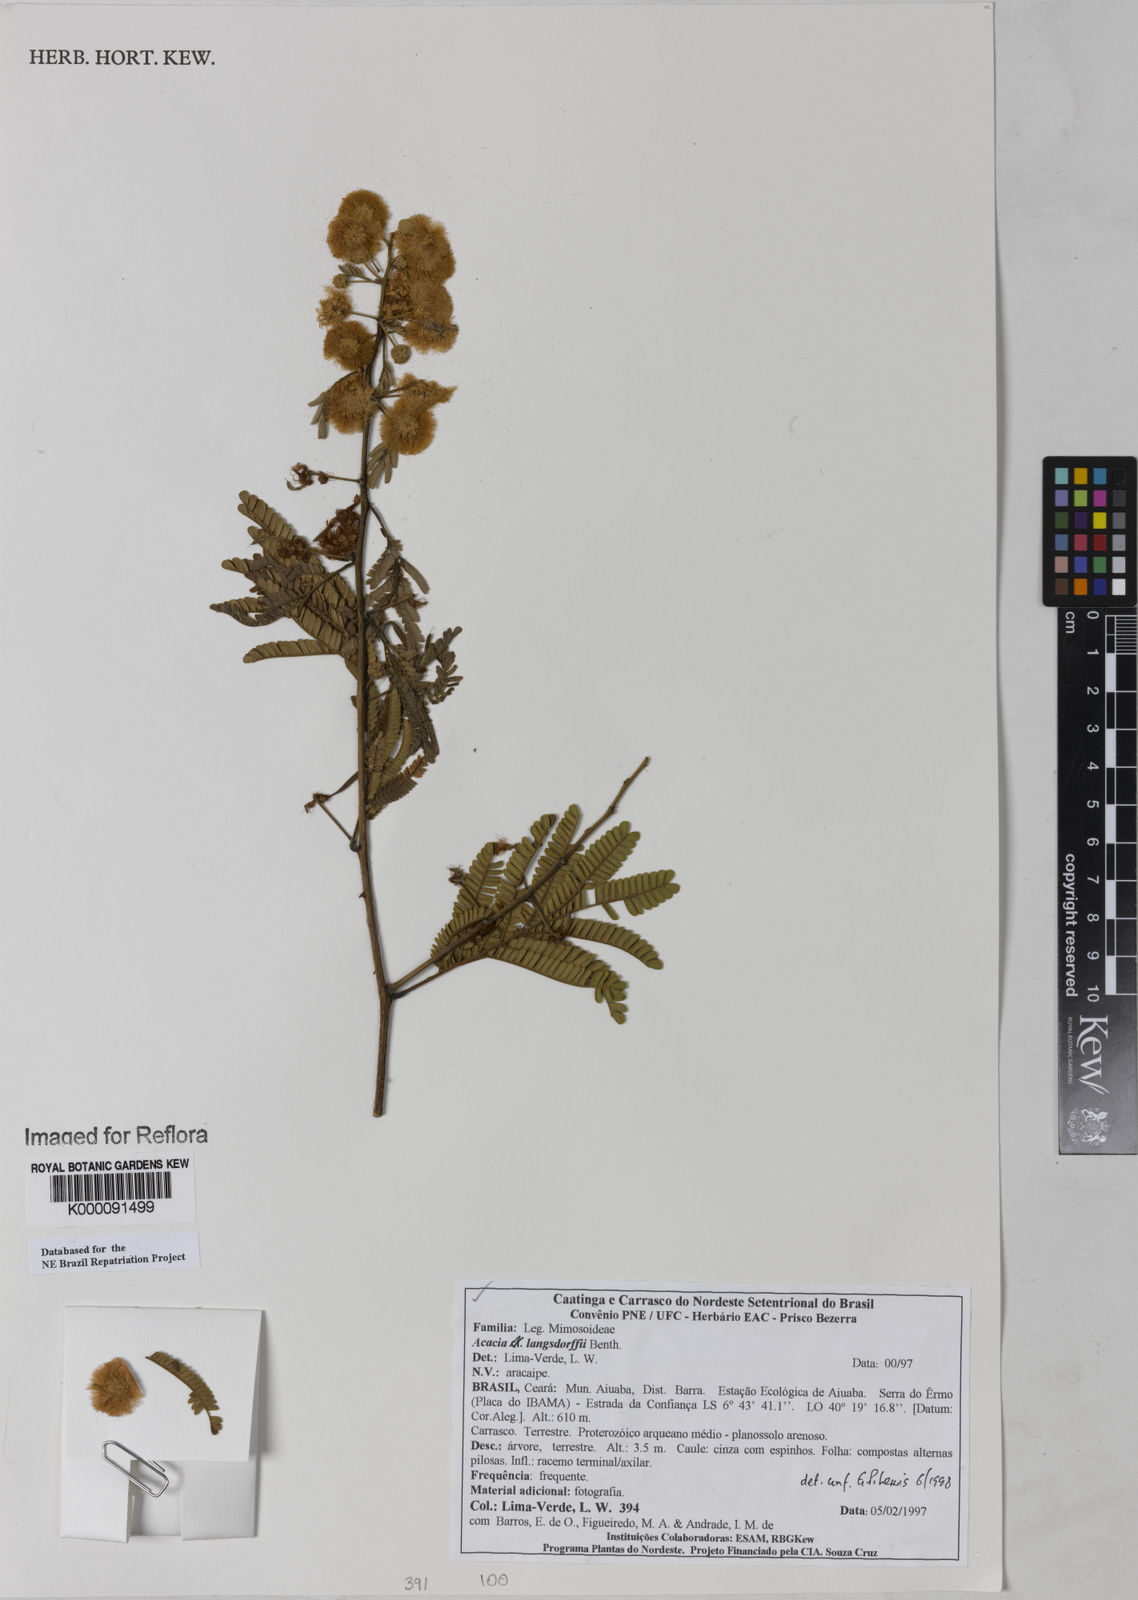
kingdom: Plantae
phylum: Tracheophyta
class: Magnoliopsida
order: Fabales
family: Fabaceae
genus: Senegalia
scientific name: Senegalia langsdorffii
